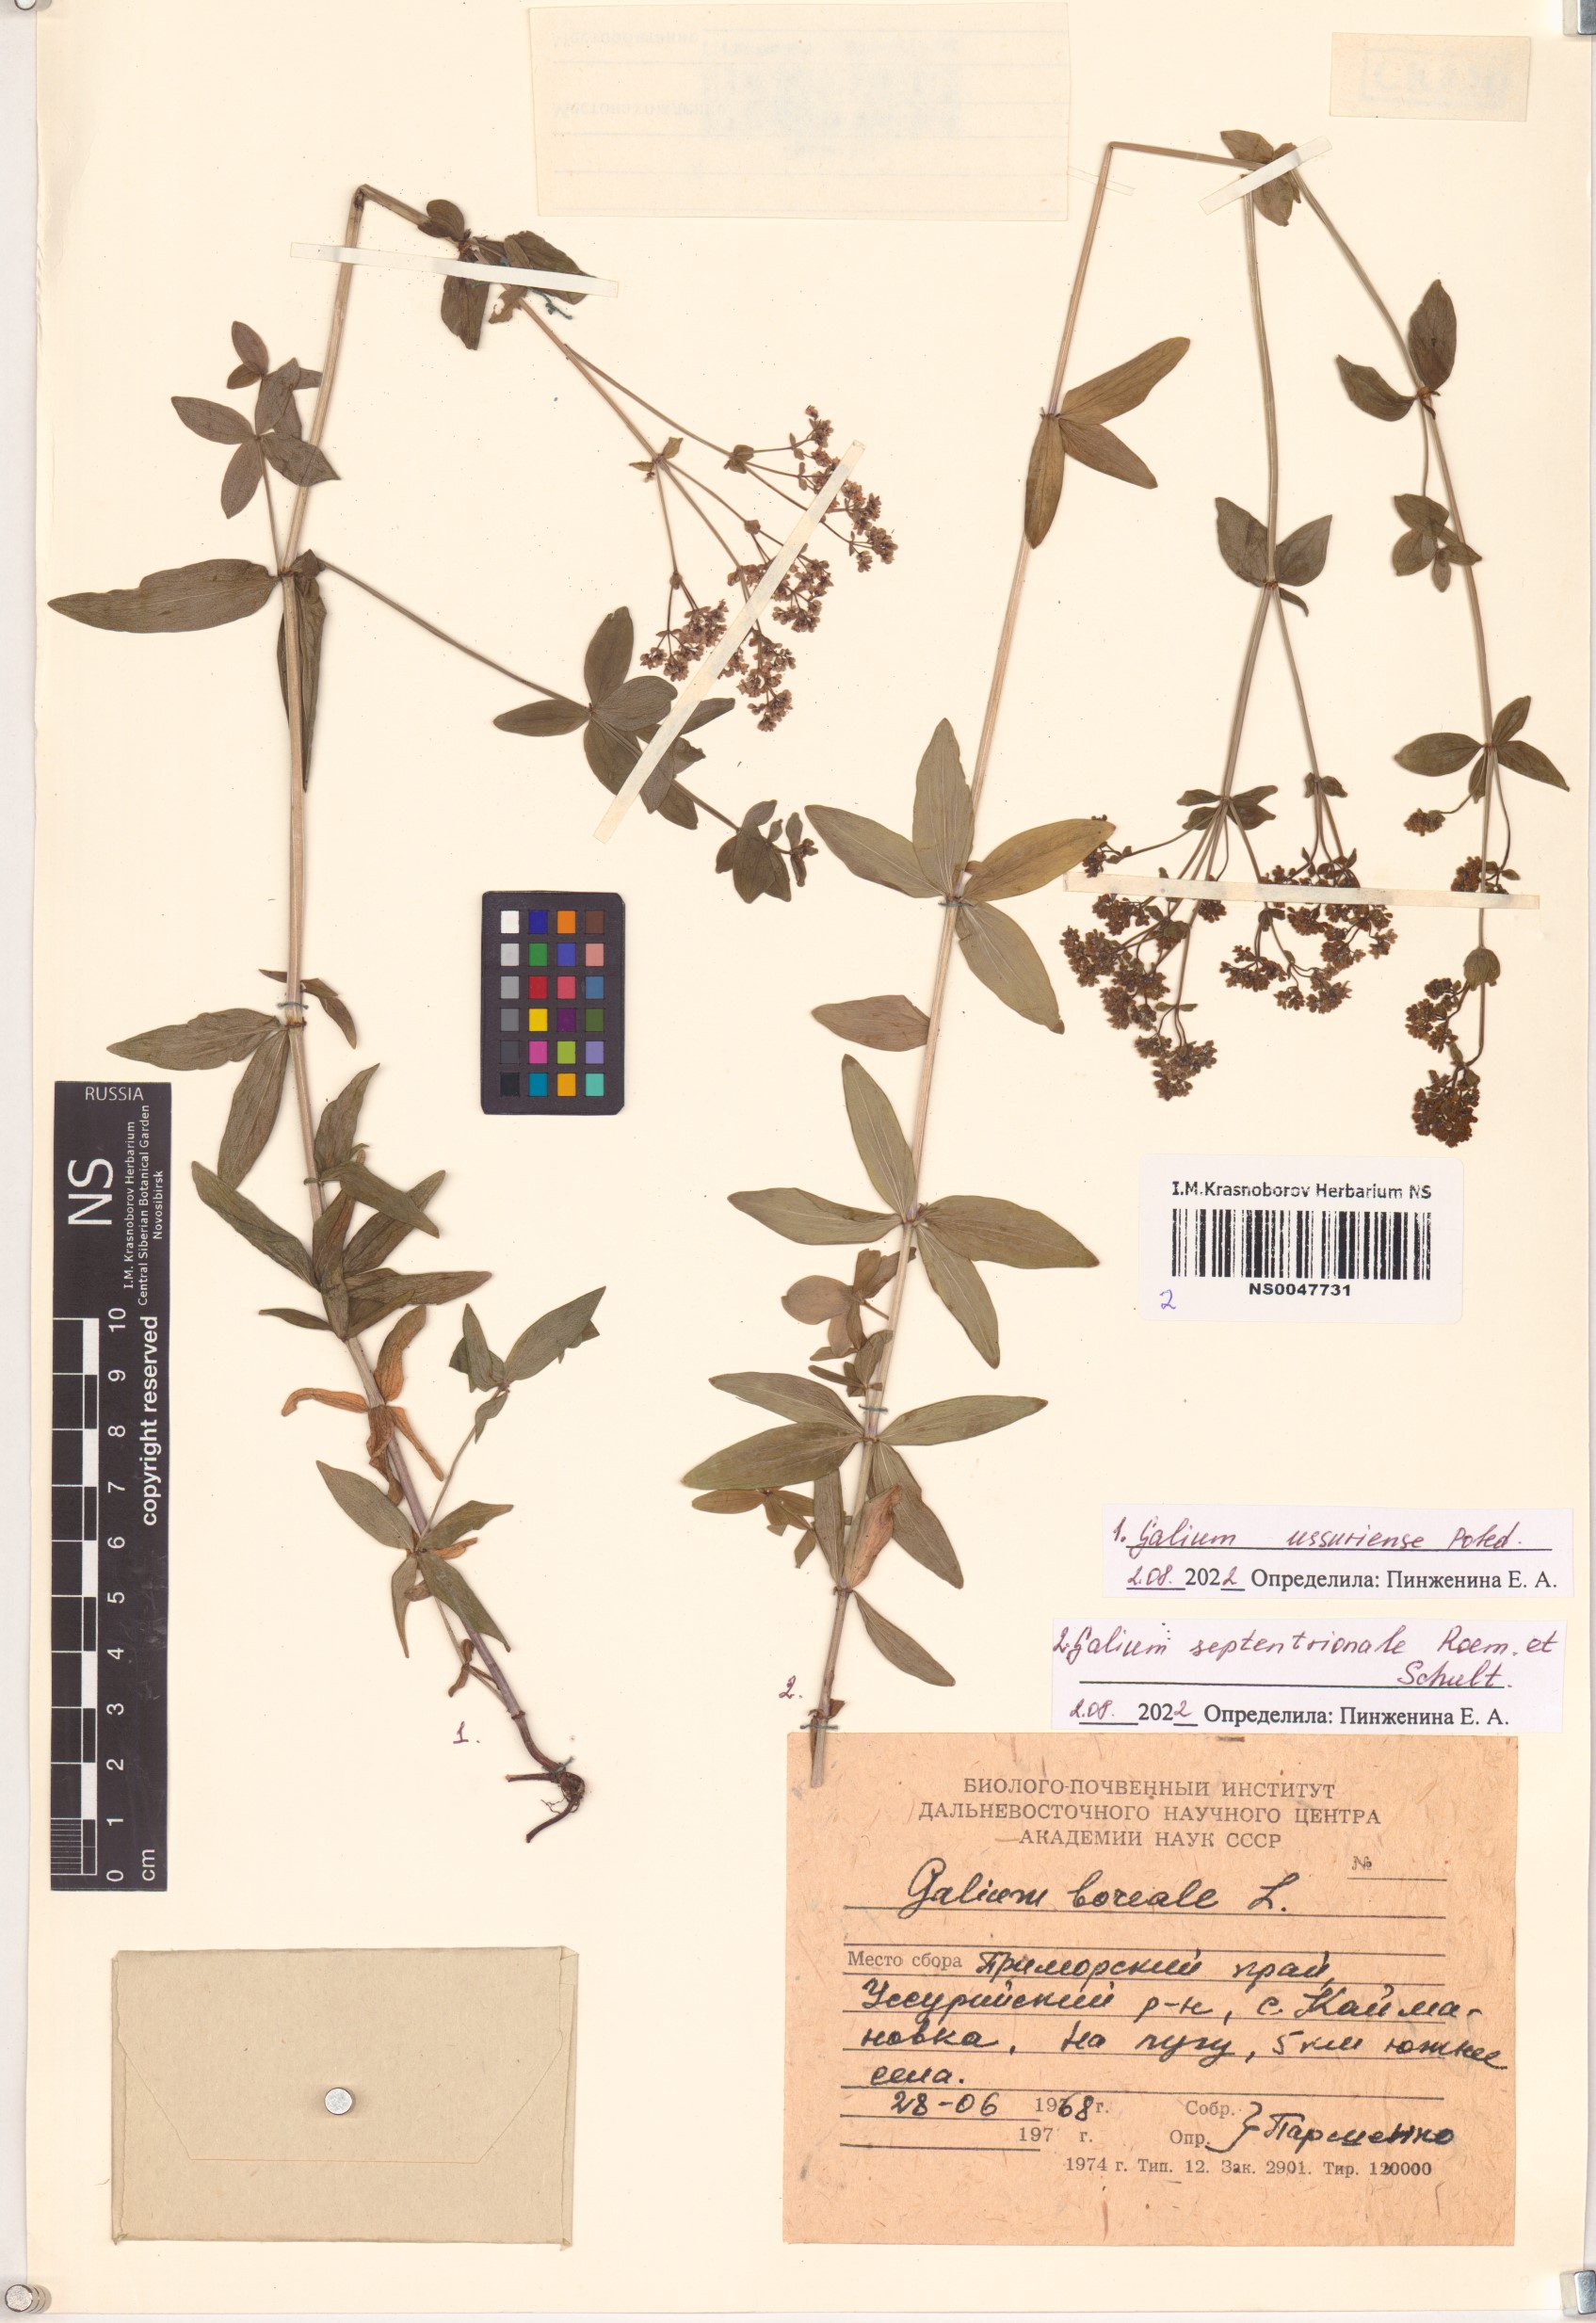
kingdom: Plantae
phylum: Tracheophyta
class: Magnoliopsida
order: Gentianales
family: Rubiaceae
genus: Galium
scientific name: Galium boreale
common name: Northern bedstraw
